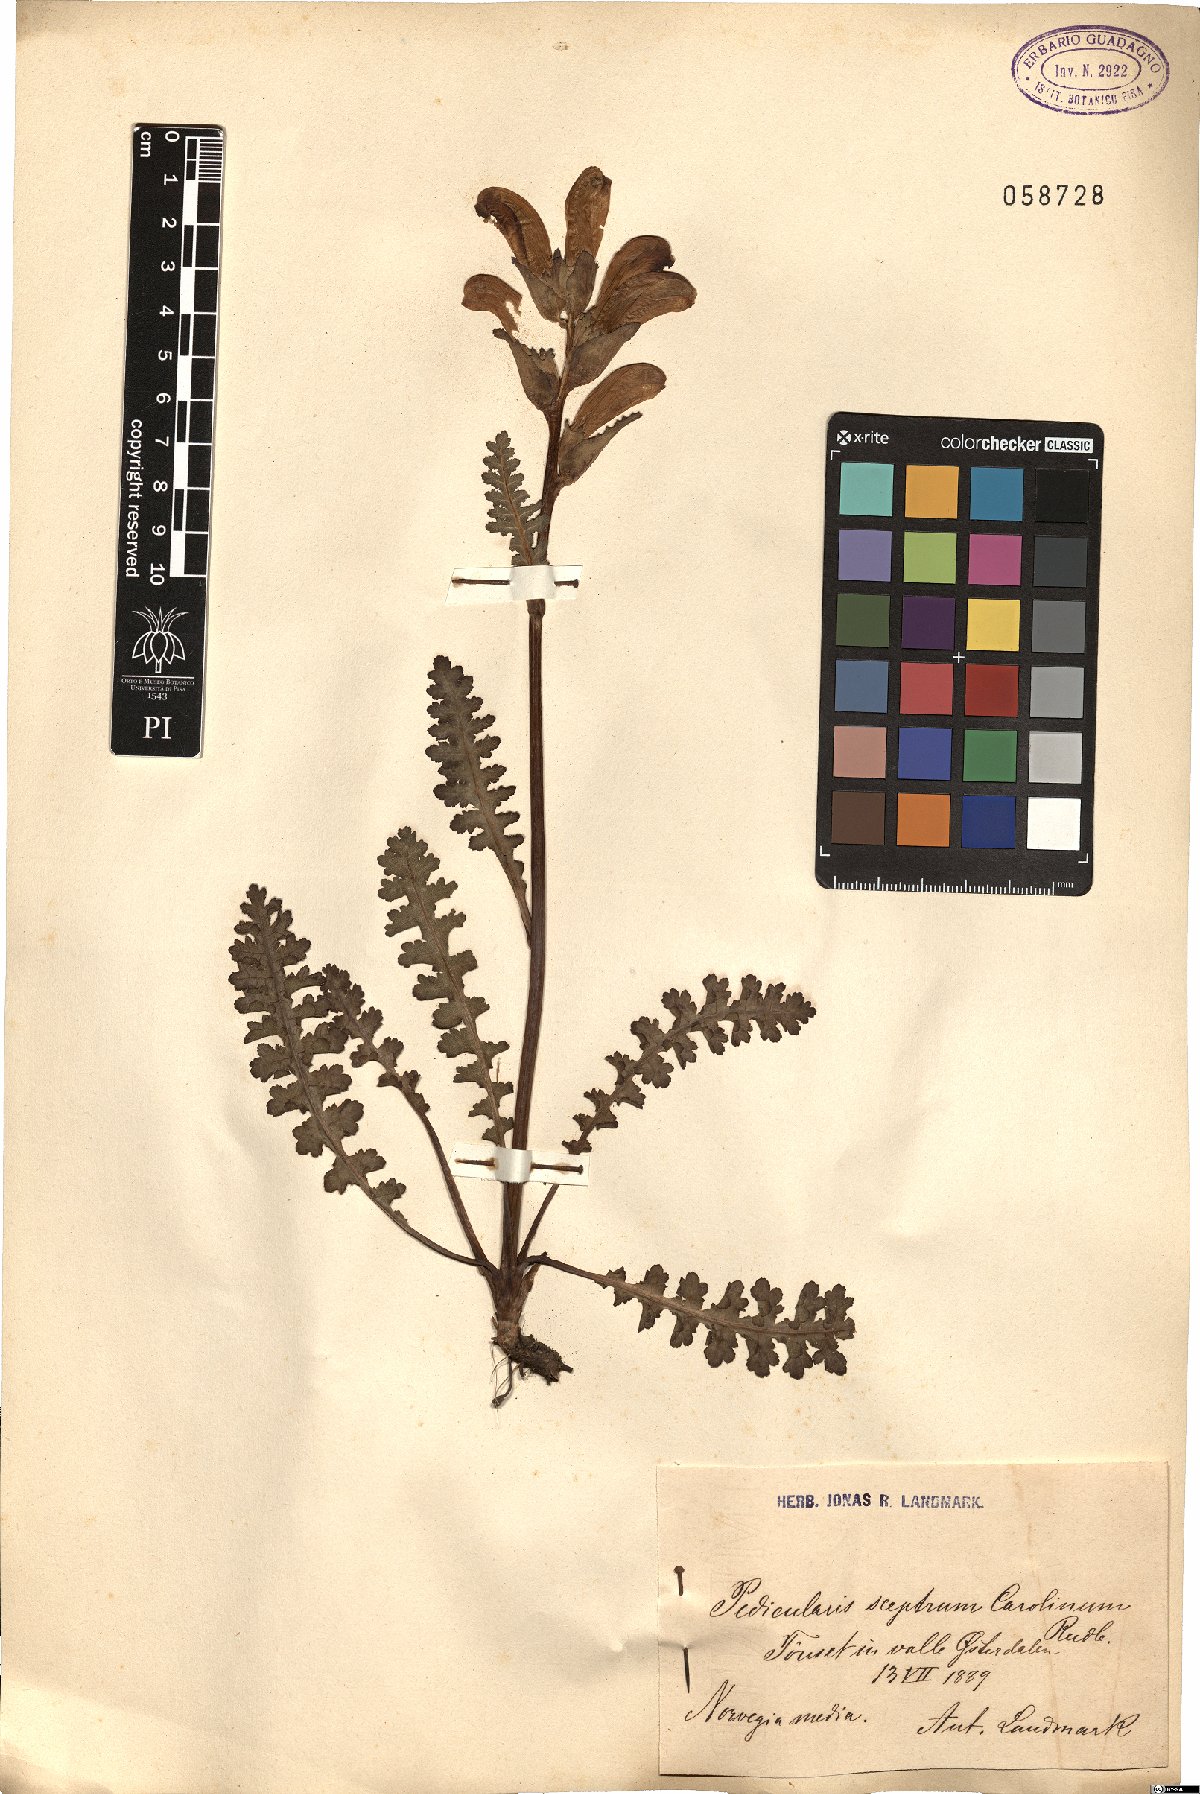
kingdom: Plantae
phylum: Tracheophyta
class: Magnoliopsida
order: Lamiales
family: Orobanchaceae
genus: Pedicularis
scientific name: Pedicularis sceptrum-carolinum
